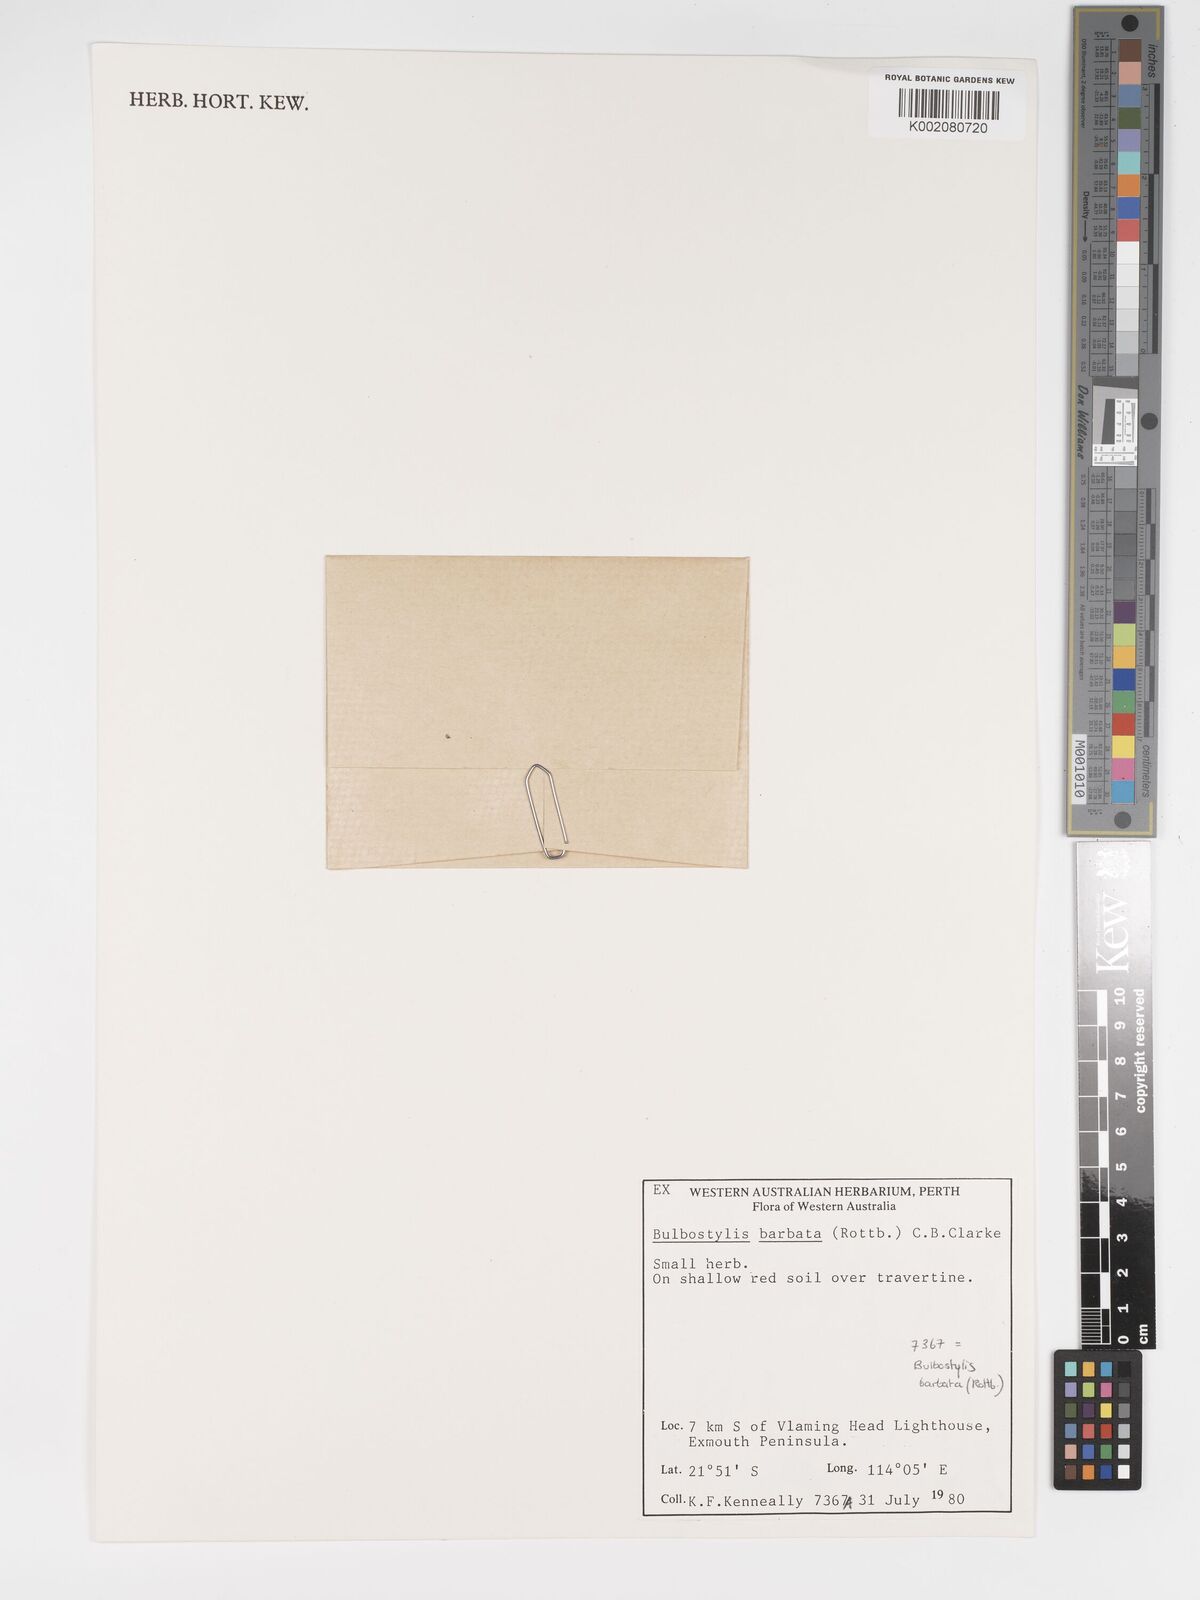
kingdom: Plantae
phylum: Tracheophyta
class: Liliopsida
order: Poales
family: Cyperaceae
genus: Bulbostylis
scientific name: Bulbostylis barbata
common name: Watergrass
